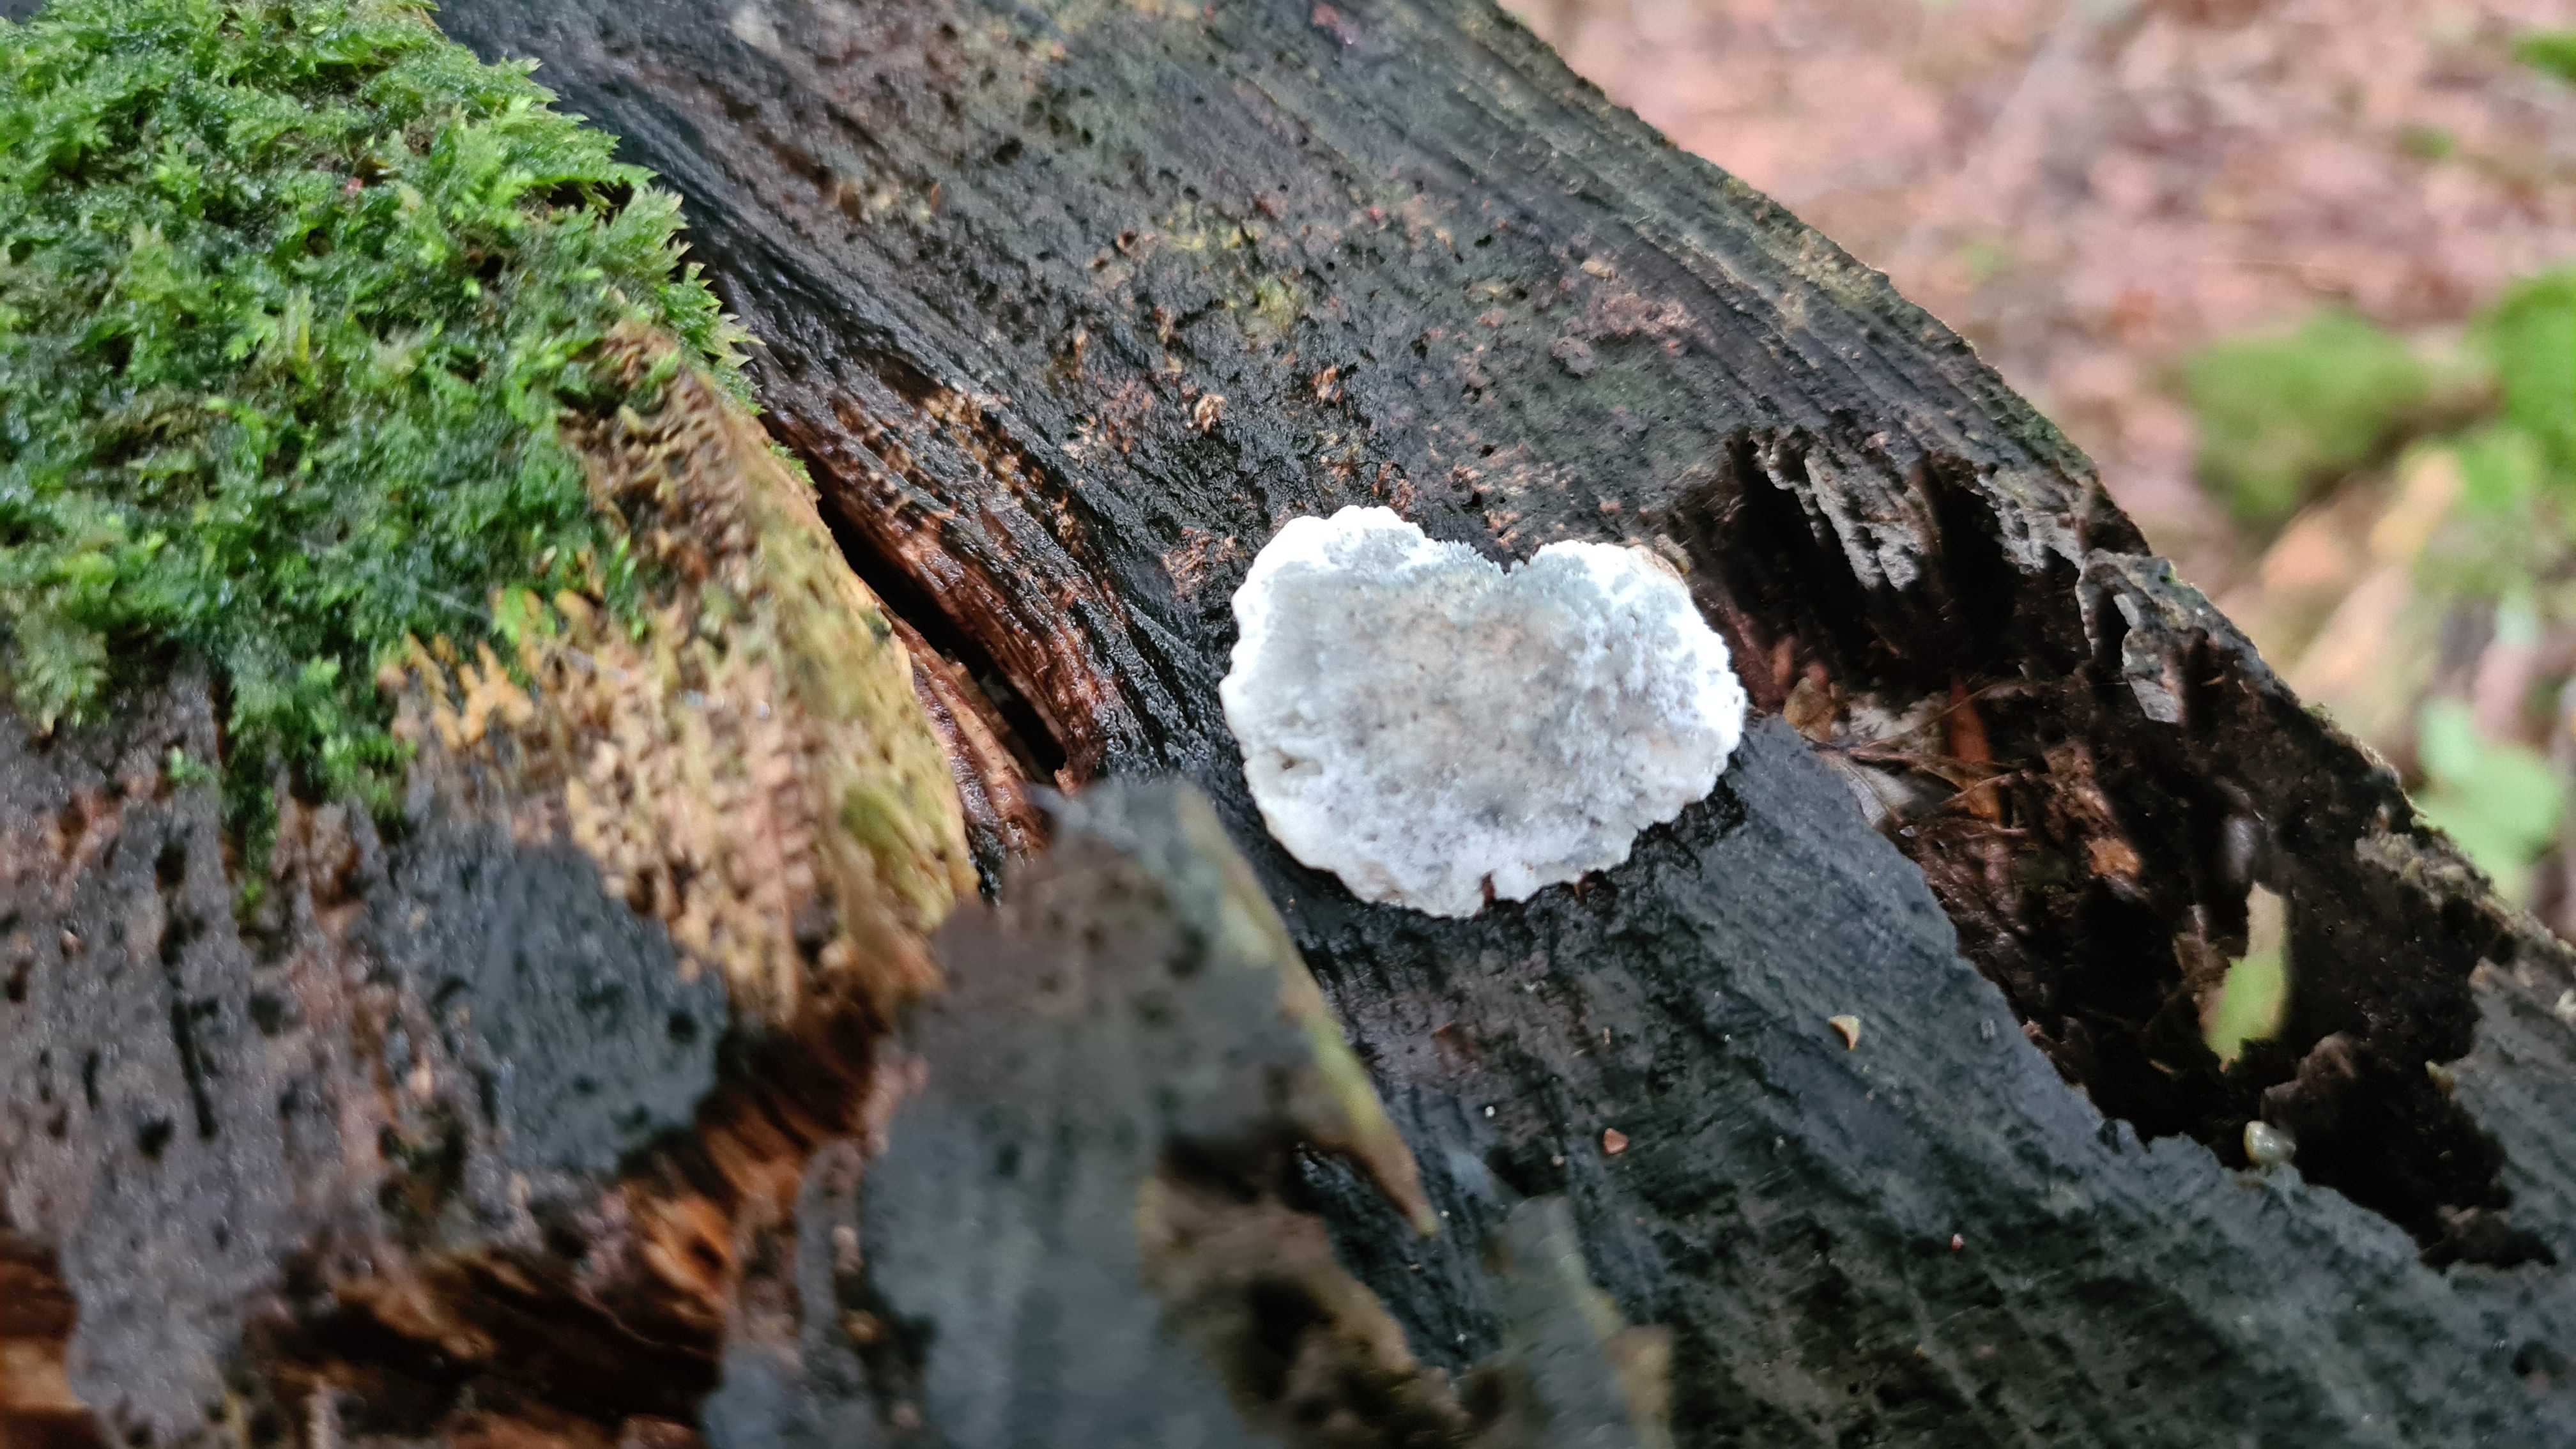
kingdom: Fungi
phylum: Basidiomycota
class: Agaricomycetes
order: Polyporales
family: Polyporaceae
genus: Cyanosporus
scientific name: Cyanosporus caesius
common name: blålig kødporesvamp
